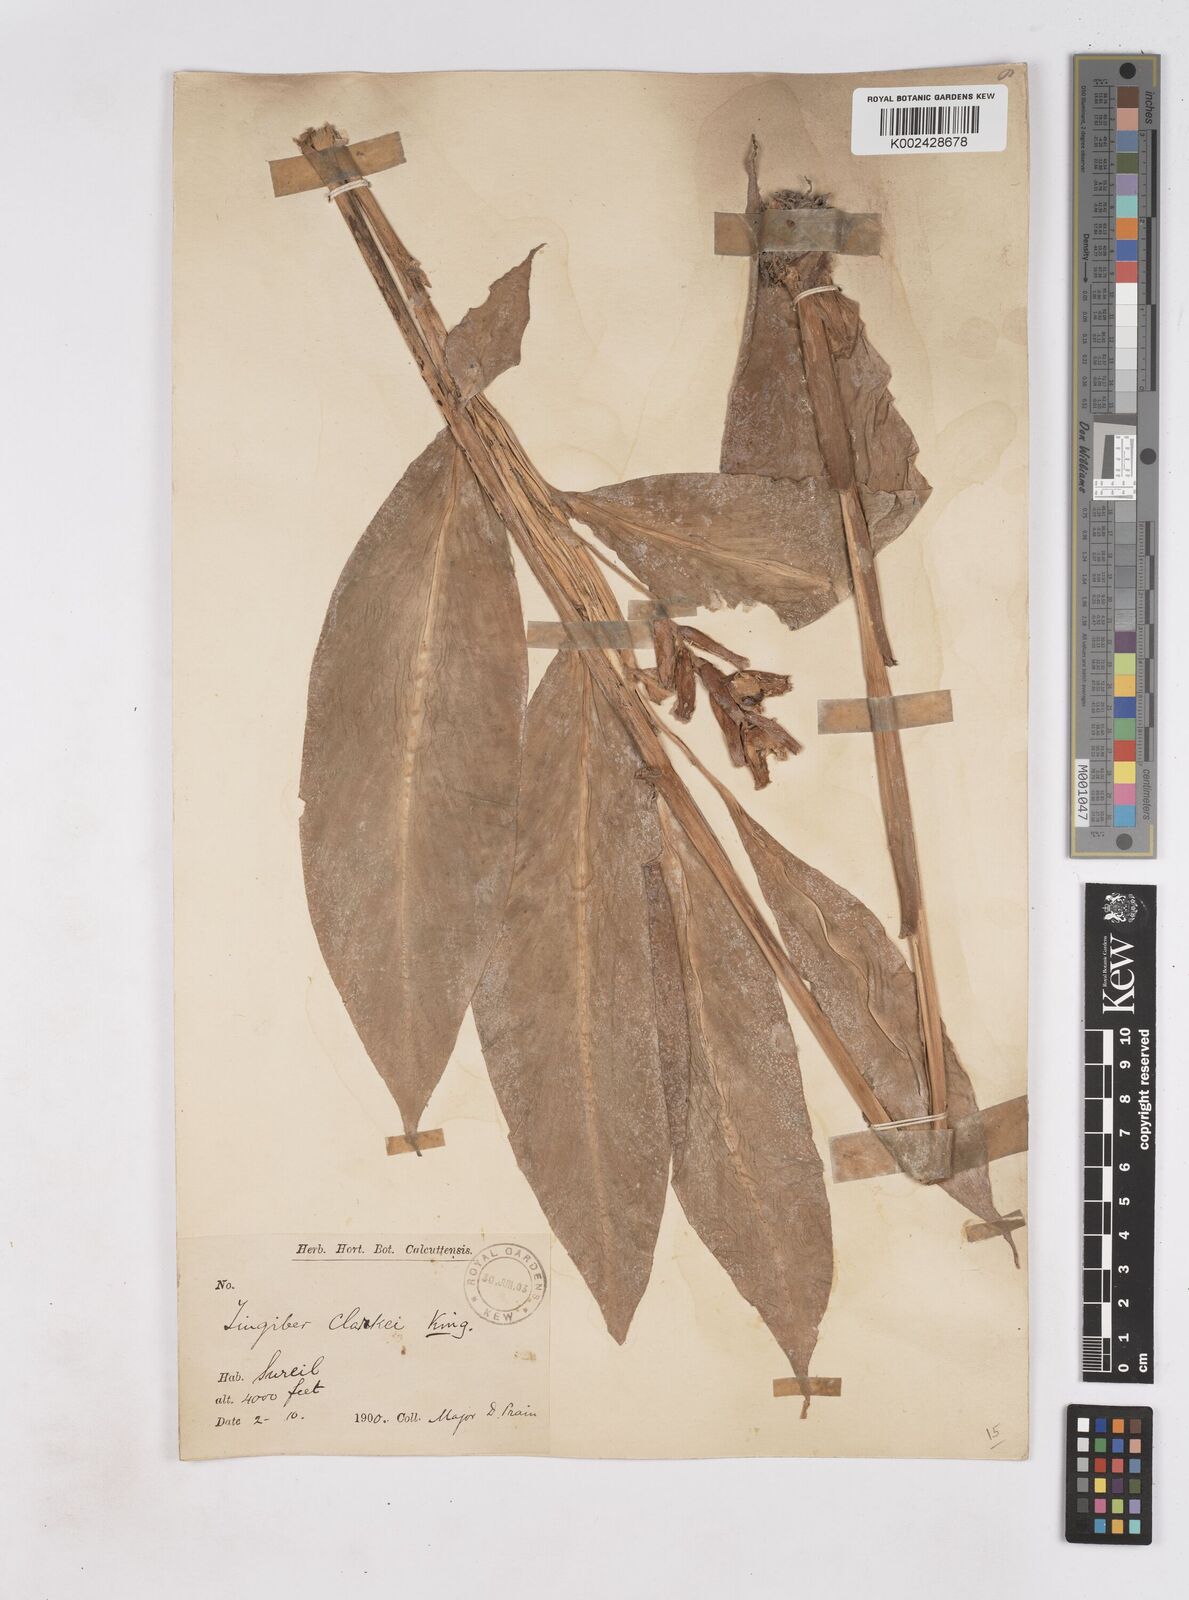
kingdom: Plantae
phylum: Tracheophyta
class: Liliopsida
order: Zingiberales
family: Zingiberaceae
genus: Zingiber
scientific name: Zingiber clarkei
